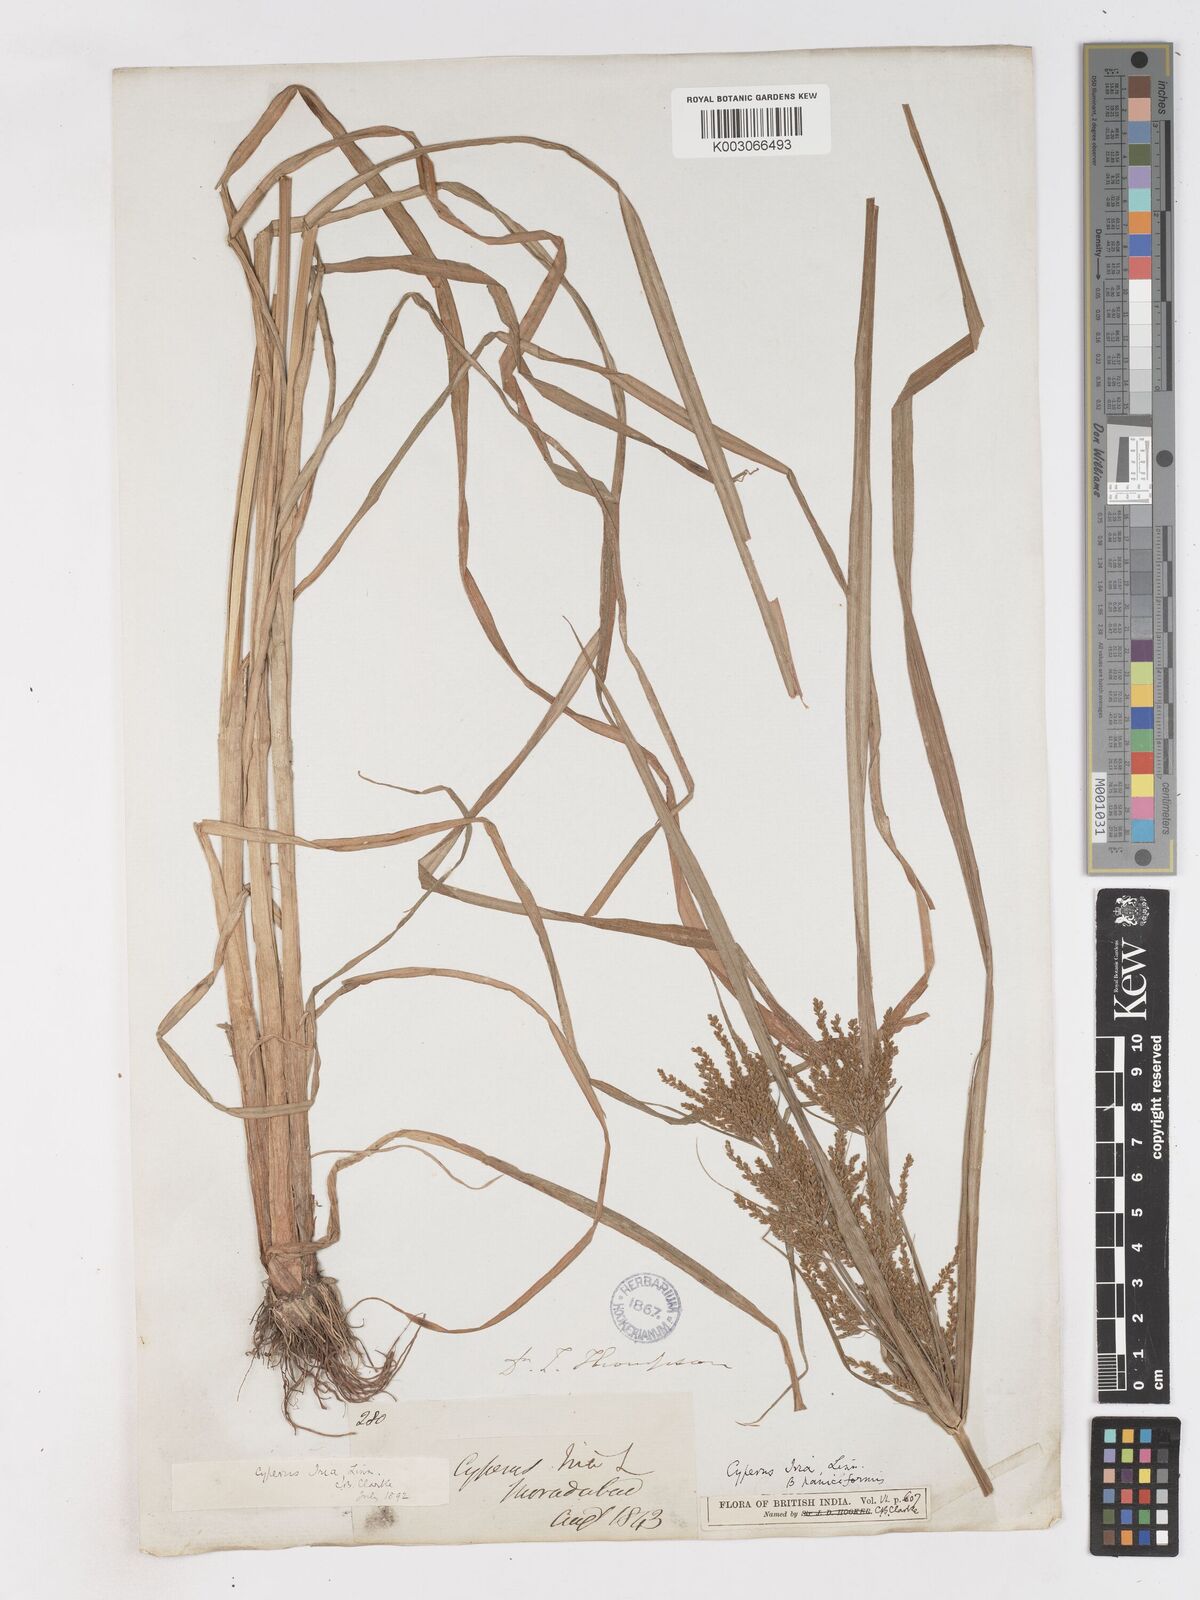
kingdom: Plantae
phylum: Tracheophyta
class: Liliopsida
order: Poales
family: Cyperaceae
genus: Cyperus
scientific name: Cyperus iria
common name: Ricefield flatsedge
